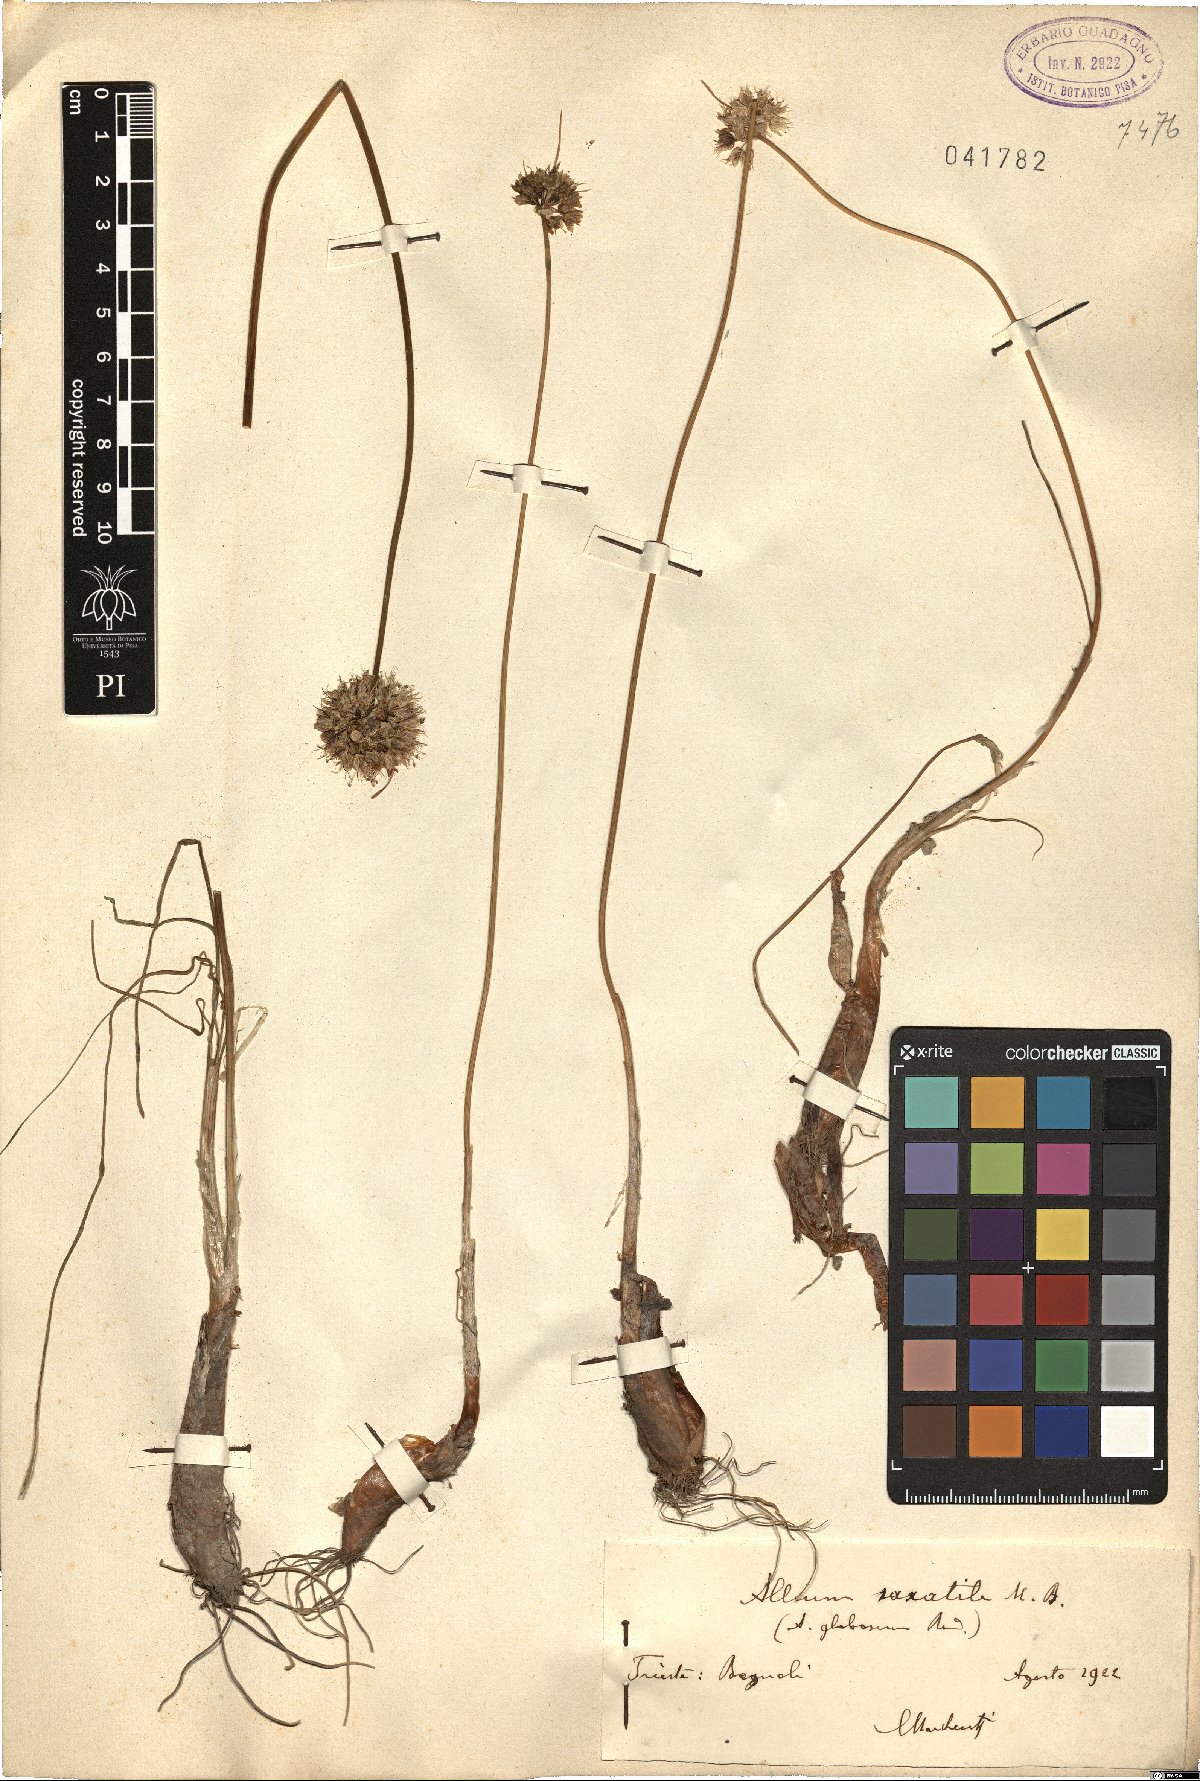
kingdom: Plantae
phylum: Tracheophyta
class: Liliopsida
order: Asparagales
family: Amaryllidaceae
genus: Allium
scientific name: Allium saxatile
